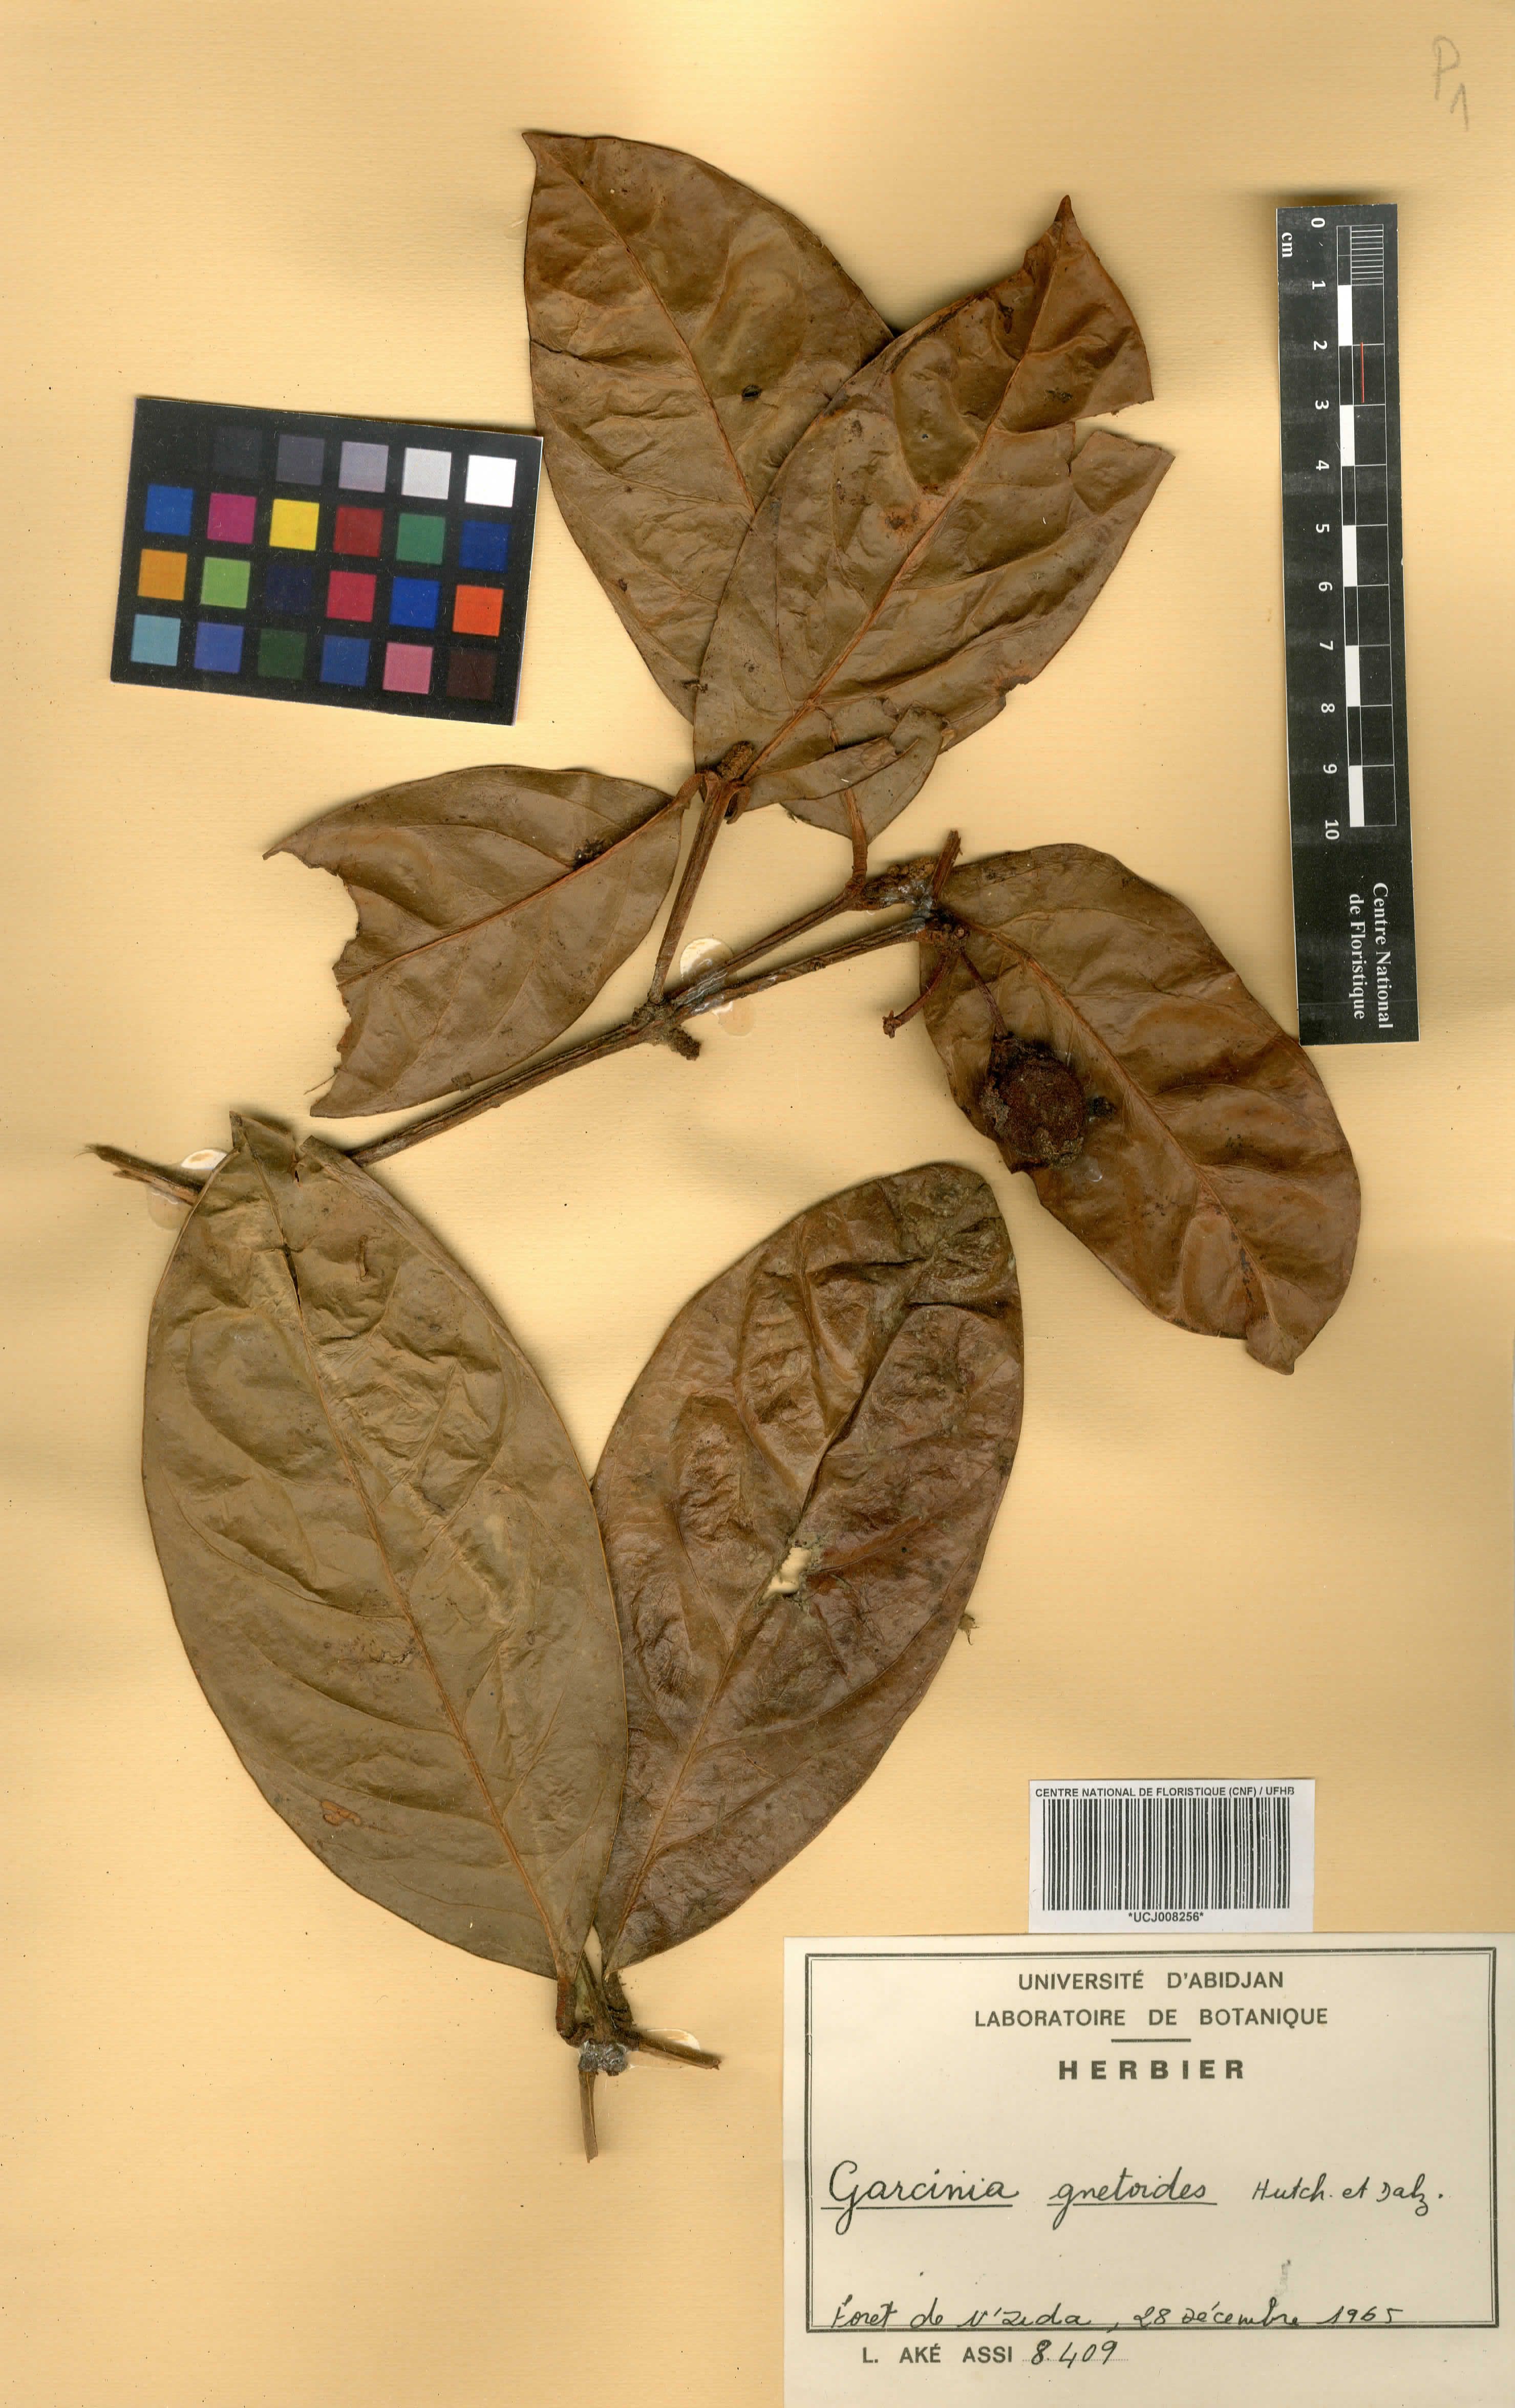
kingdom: Plantae
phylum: Tracheophyta
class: Magnoliopsida
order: Malpighiales
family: Clusiaceae
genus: Garcinia
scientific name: Garcinia gnetoides
